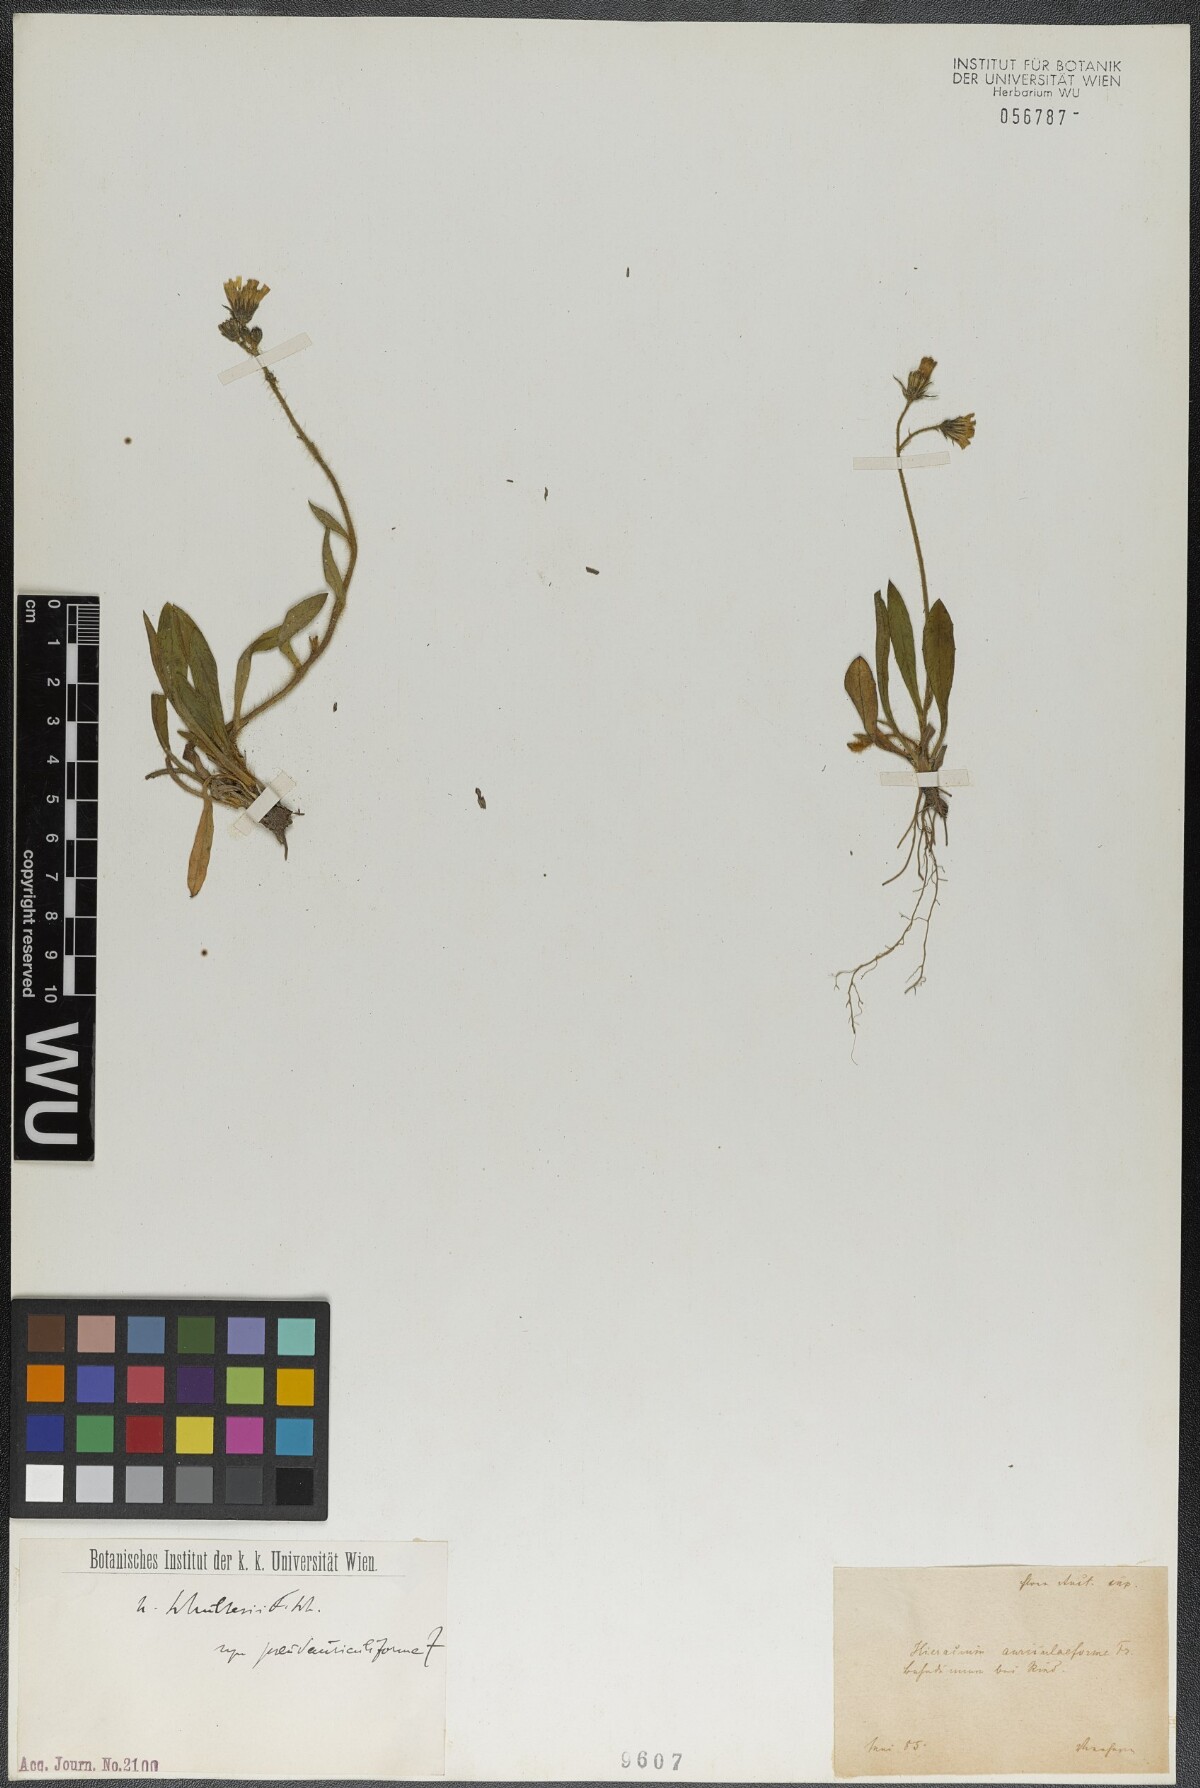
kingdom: Plantae
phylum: Tracheophyta
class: Magnoliopsida
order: Asterales
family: Asteraceae
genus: Pilosella
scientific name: Pilosella schultesii
